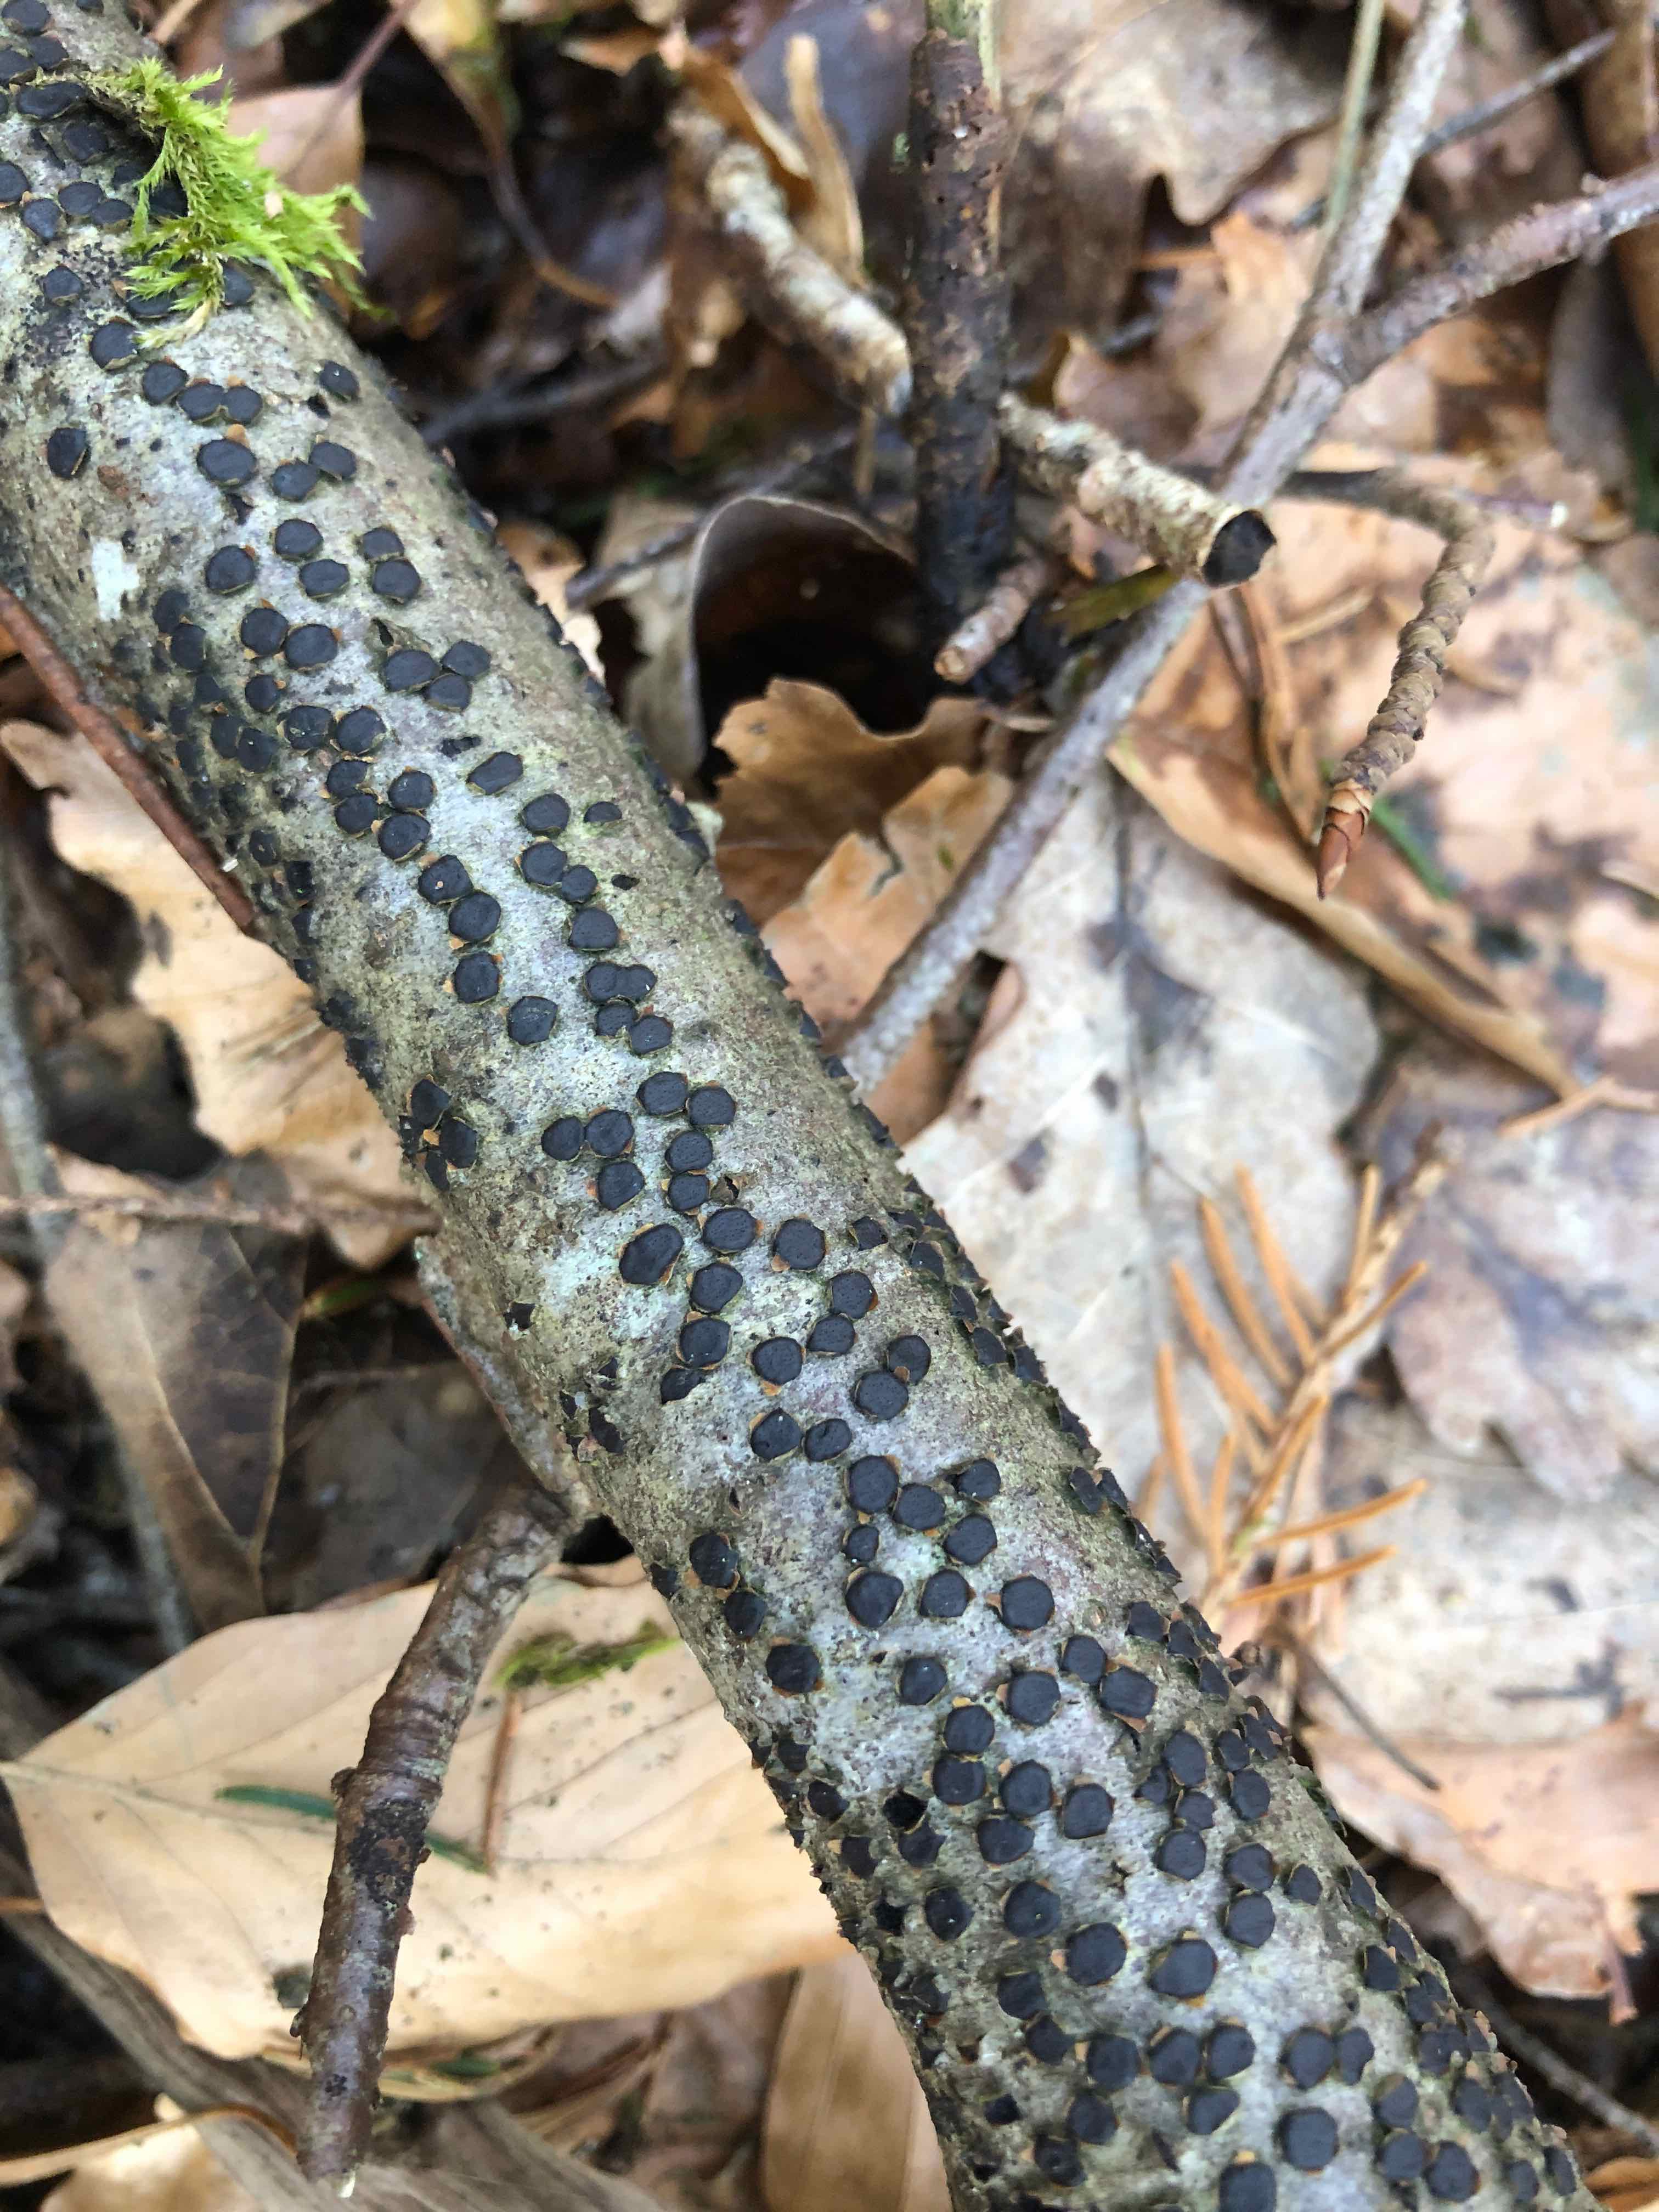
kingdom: Fungi
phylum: Ascomycota
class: Sordariomycetes
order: Xylariales
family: Diatrypaceae
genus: Diatrype
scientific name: Diatrype disciformis
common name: kant-kulskorpe
